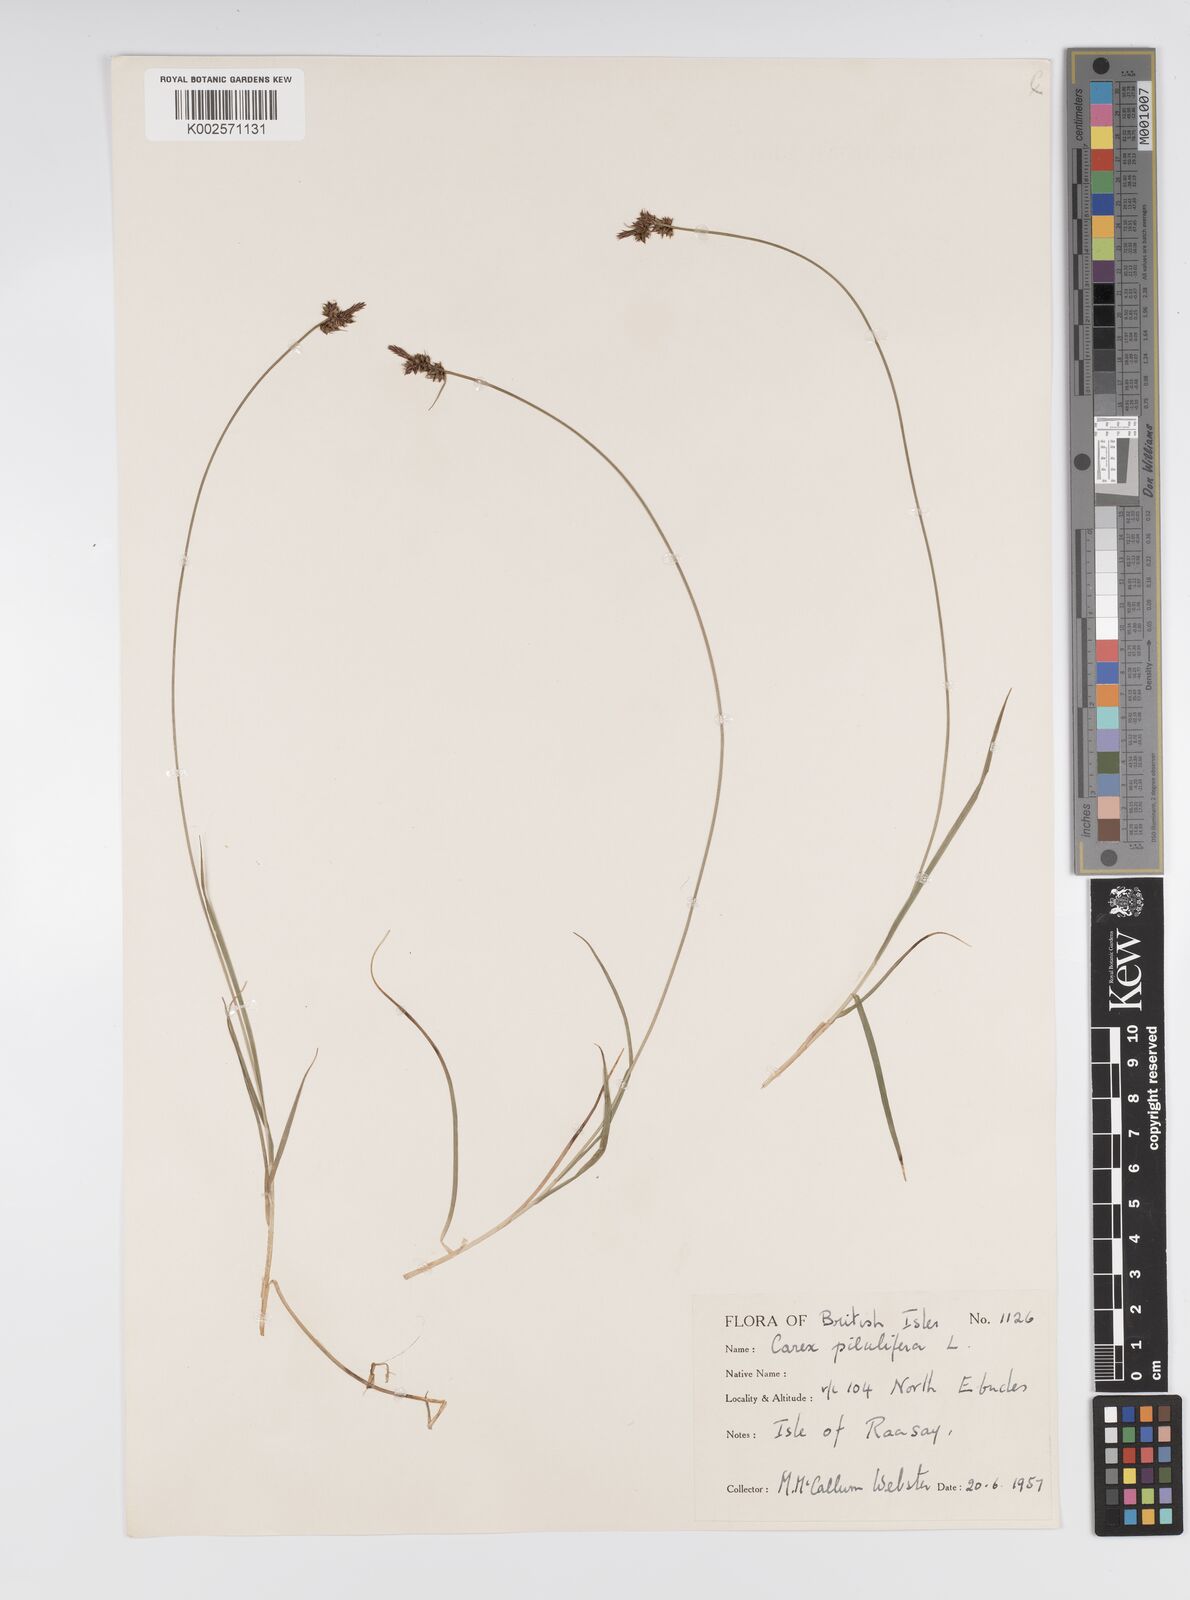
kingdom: Plantae
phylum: Tracheophyta
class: Liliopsida
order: Poales
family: Cyperaceae
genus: Carex
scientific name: Carex pilulifera
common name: Pill sedge
